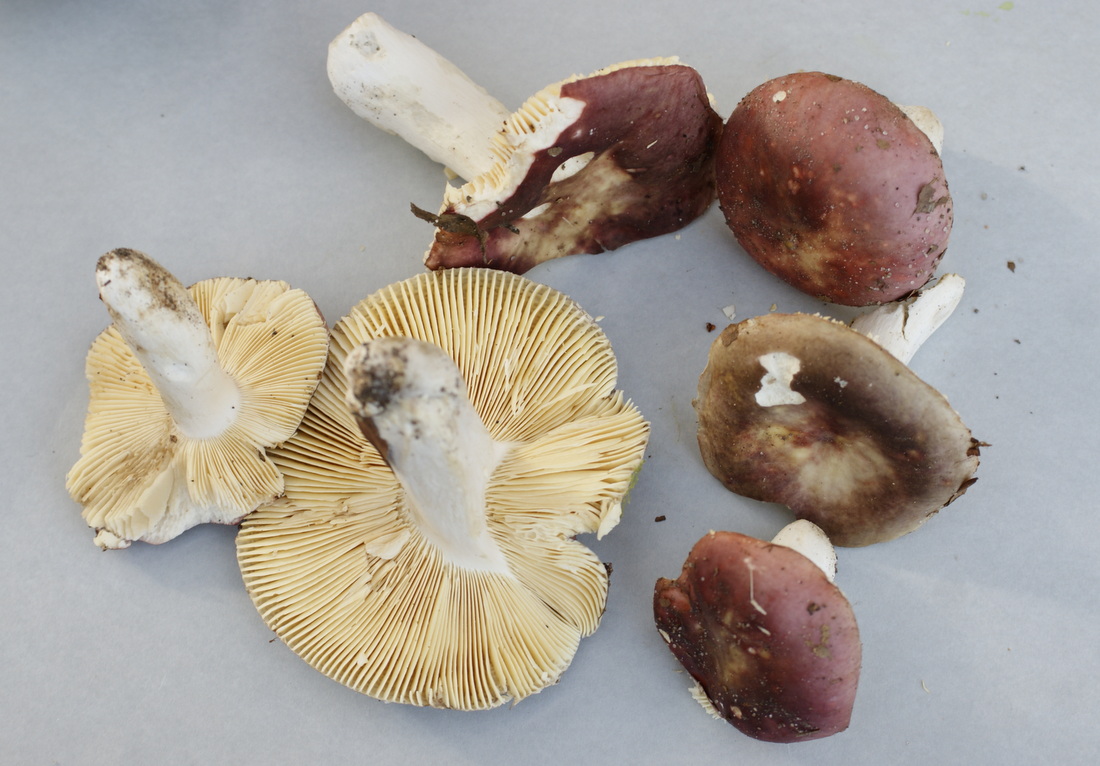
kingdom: Fungi
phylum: Basidiomycota
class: Agaricomycetes
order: Russulales
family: Russulaceae
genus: Russula
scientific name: Russula romellii
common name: romells skørhat
